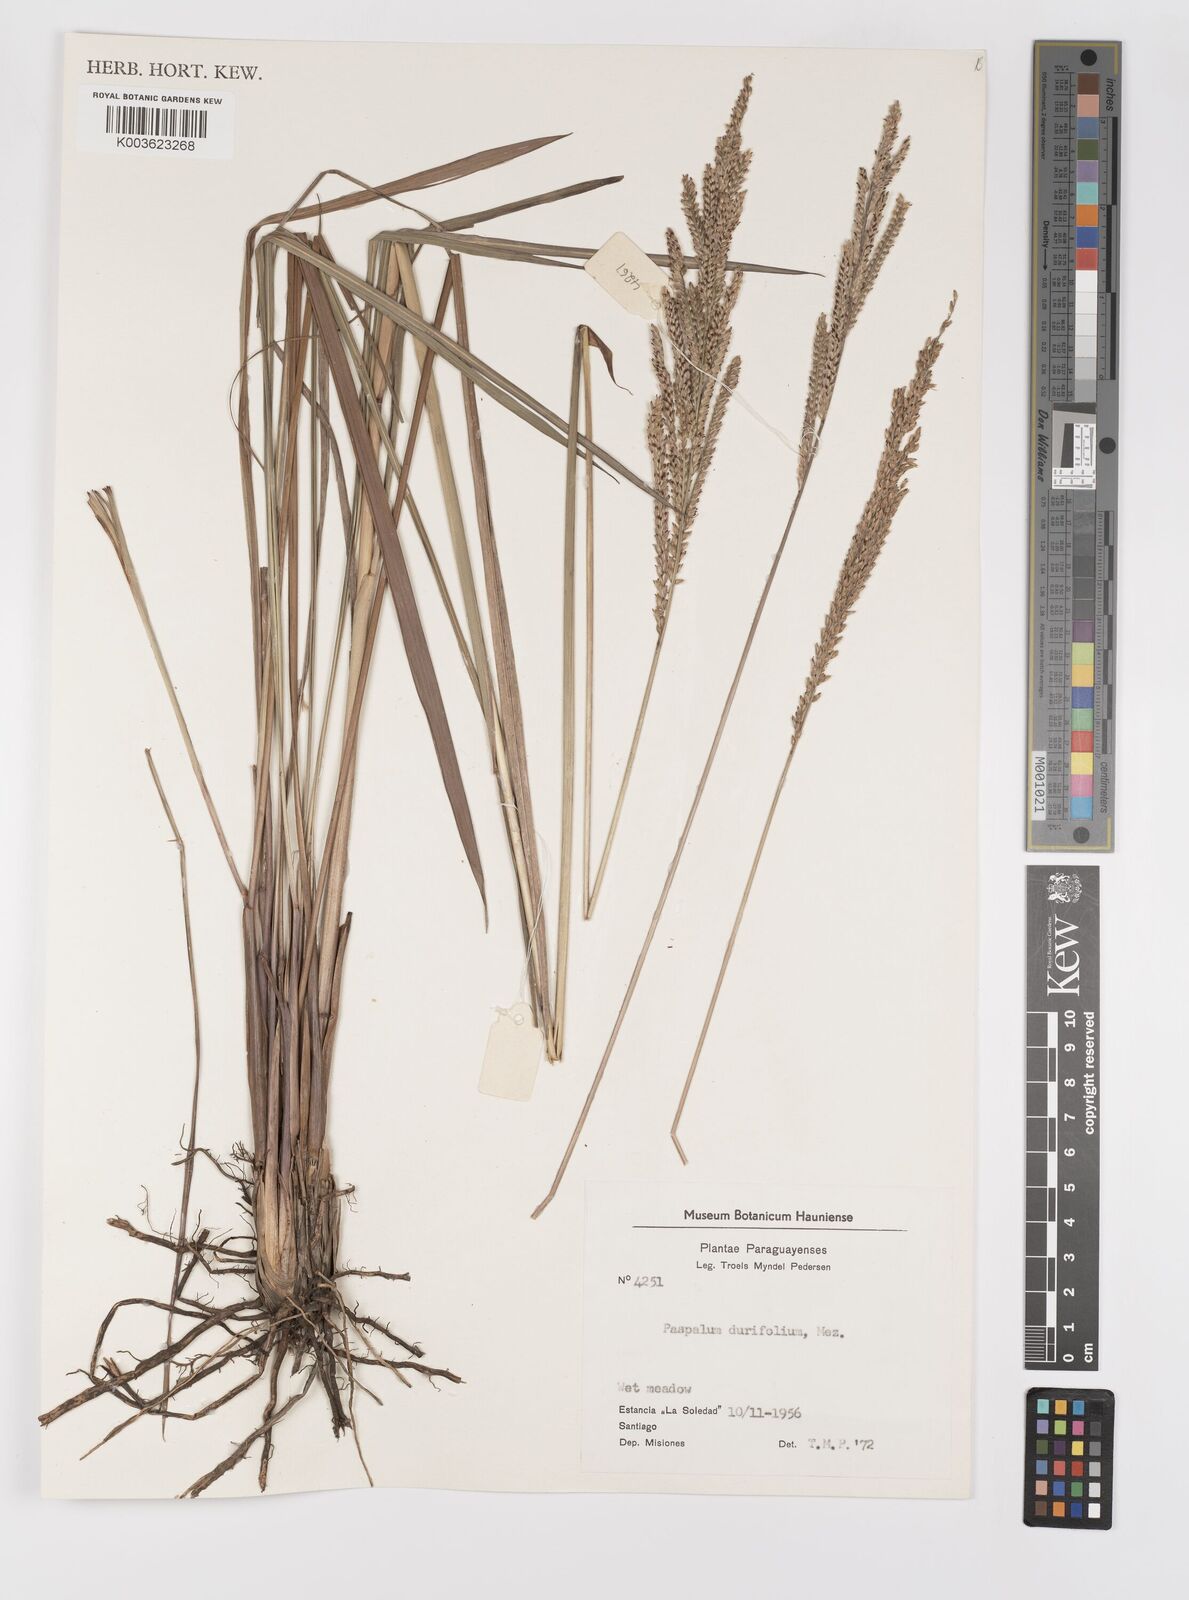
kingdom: Plantae
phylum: Tracheophyta
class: Liliopsida
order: Poales
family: Poaceae
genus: Paspalum
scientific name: Paspalum durifolium
